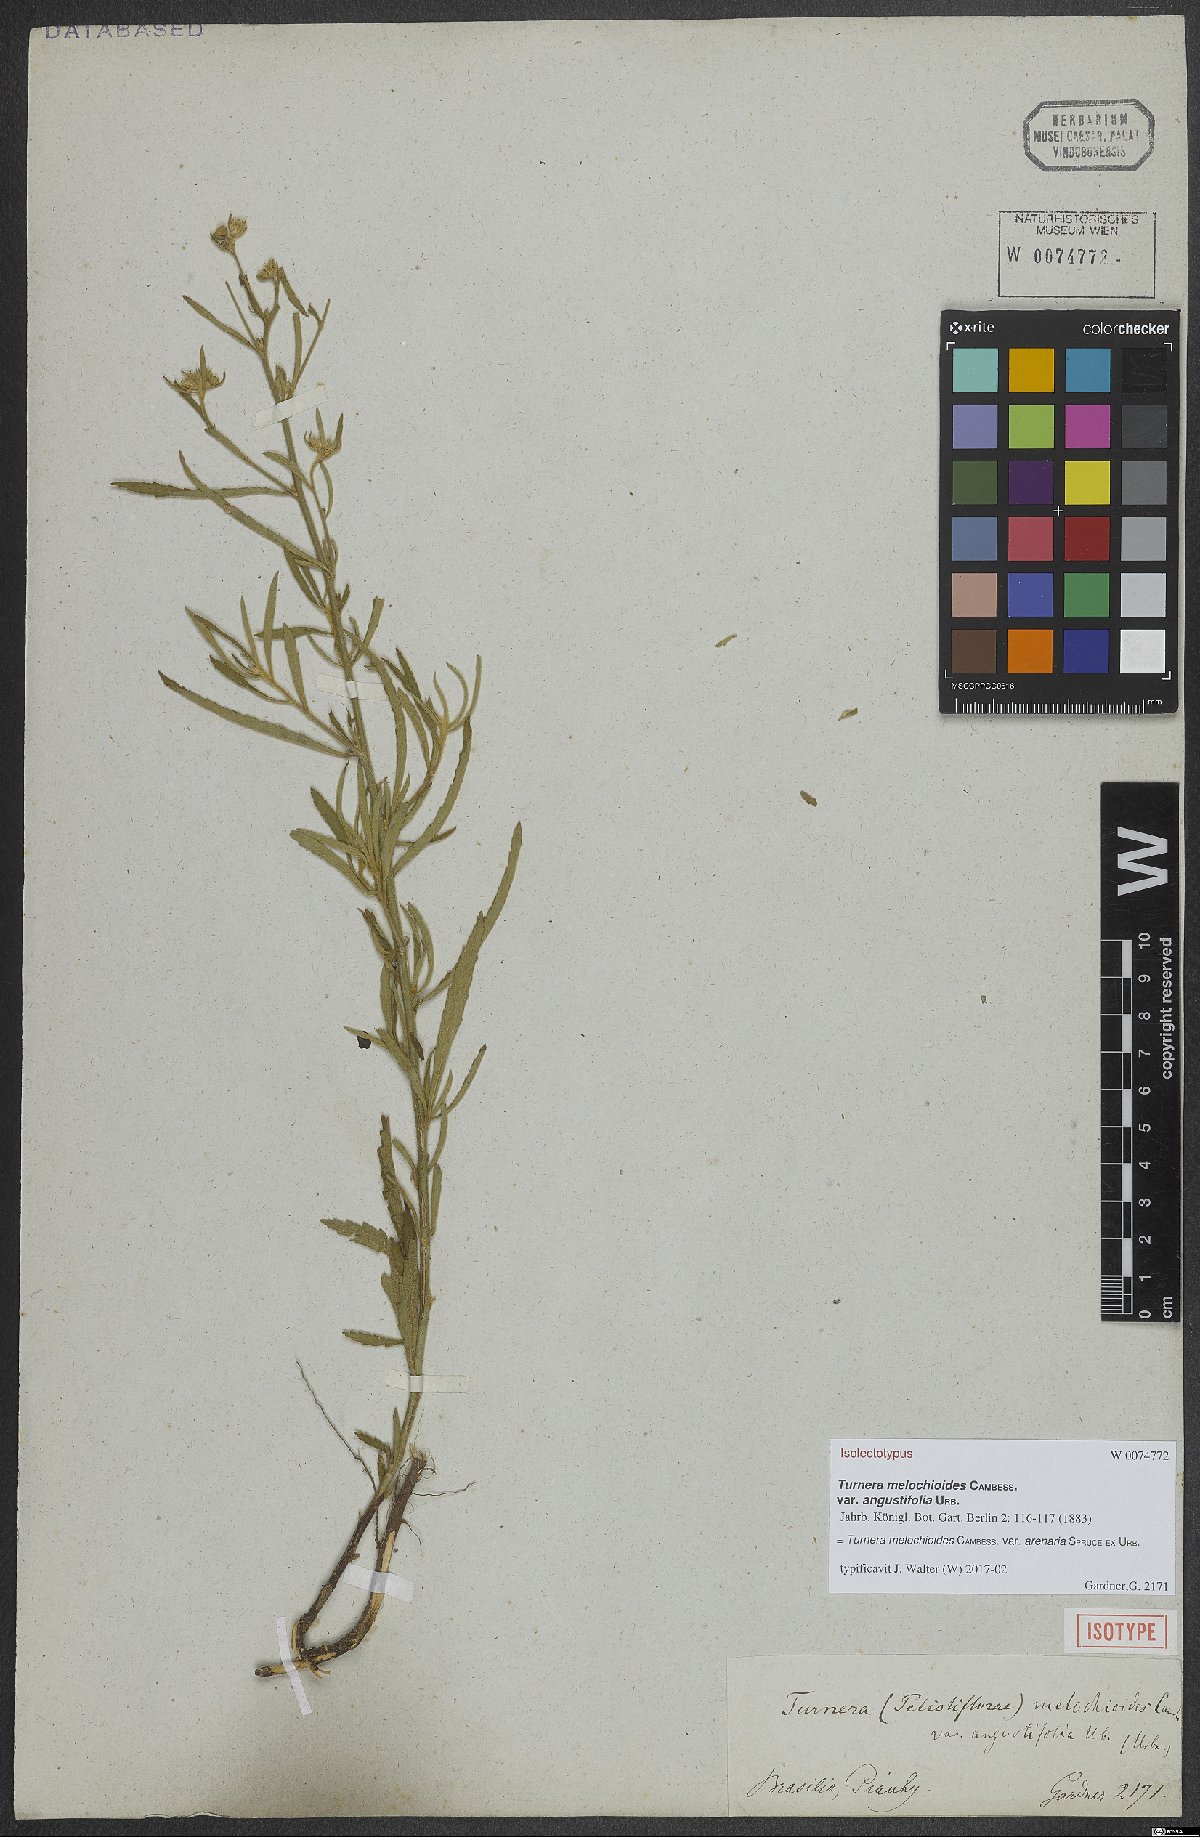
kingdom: Plantae
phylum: Tracheophyta
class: Magnoliopsida
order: Malpighiales
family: Turneraceae
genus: Turnera
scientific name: Turnera arenaria
